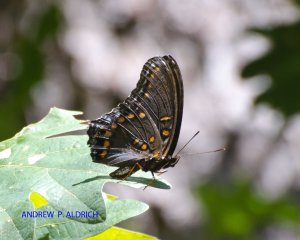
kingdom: Animalia
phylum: Arthropoda
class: Insecta
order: Lepidoptera
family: Nymphalidae
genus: Limenitis
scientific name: Limenitis astyanax
